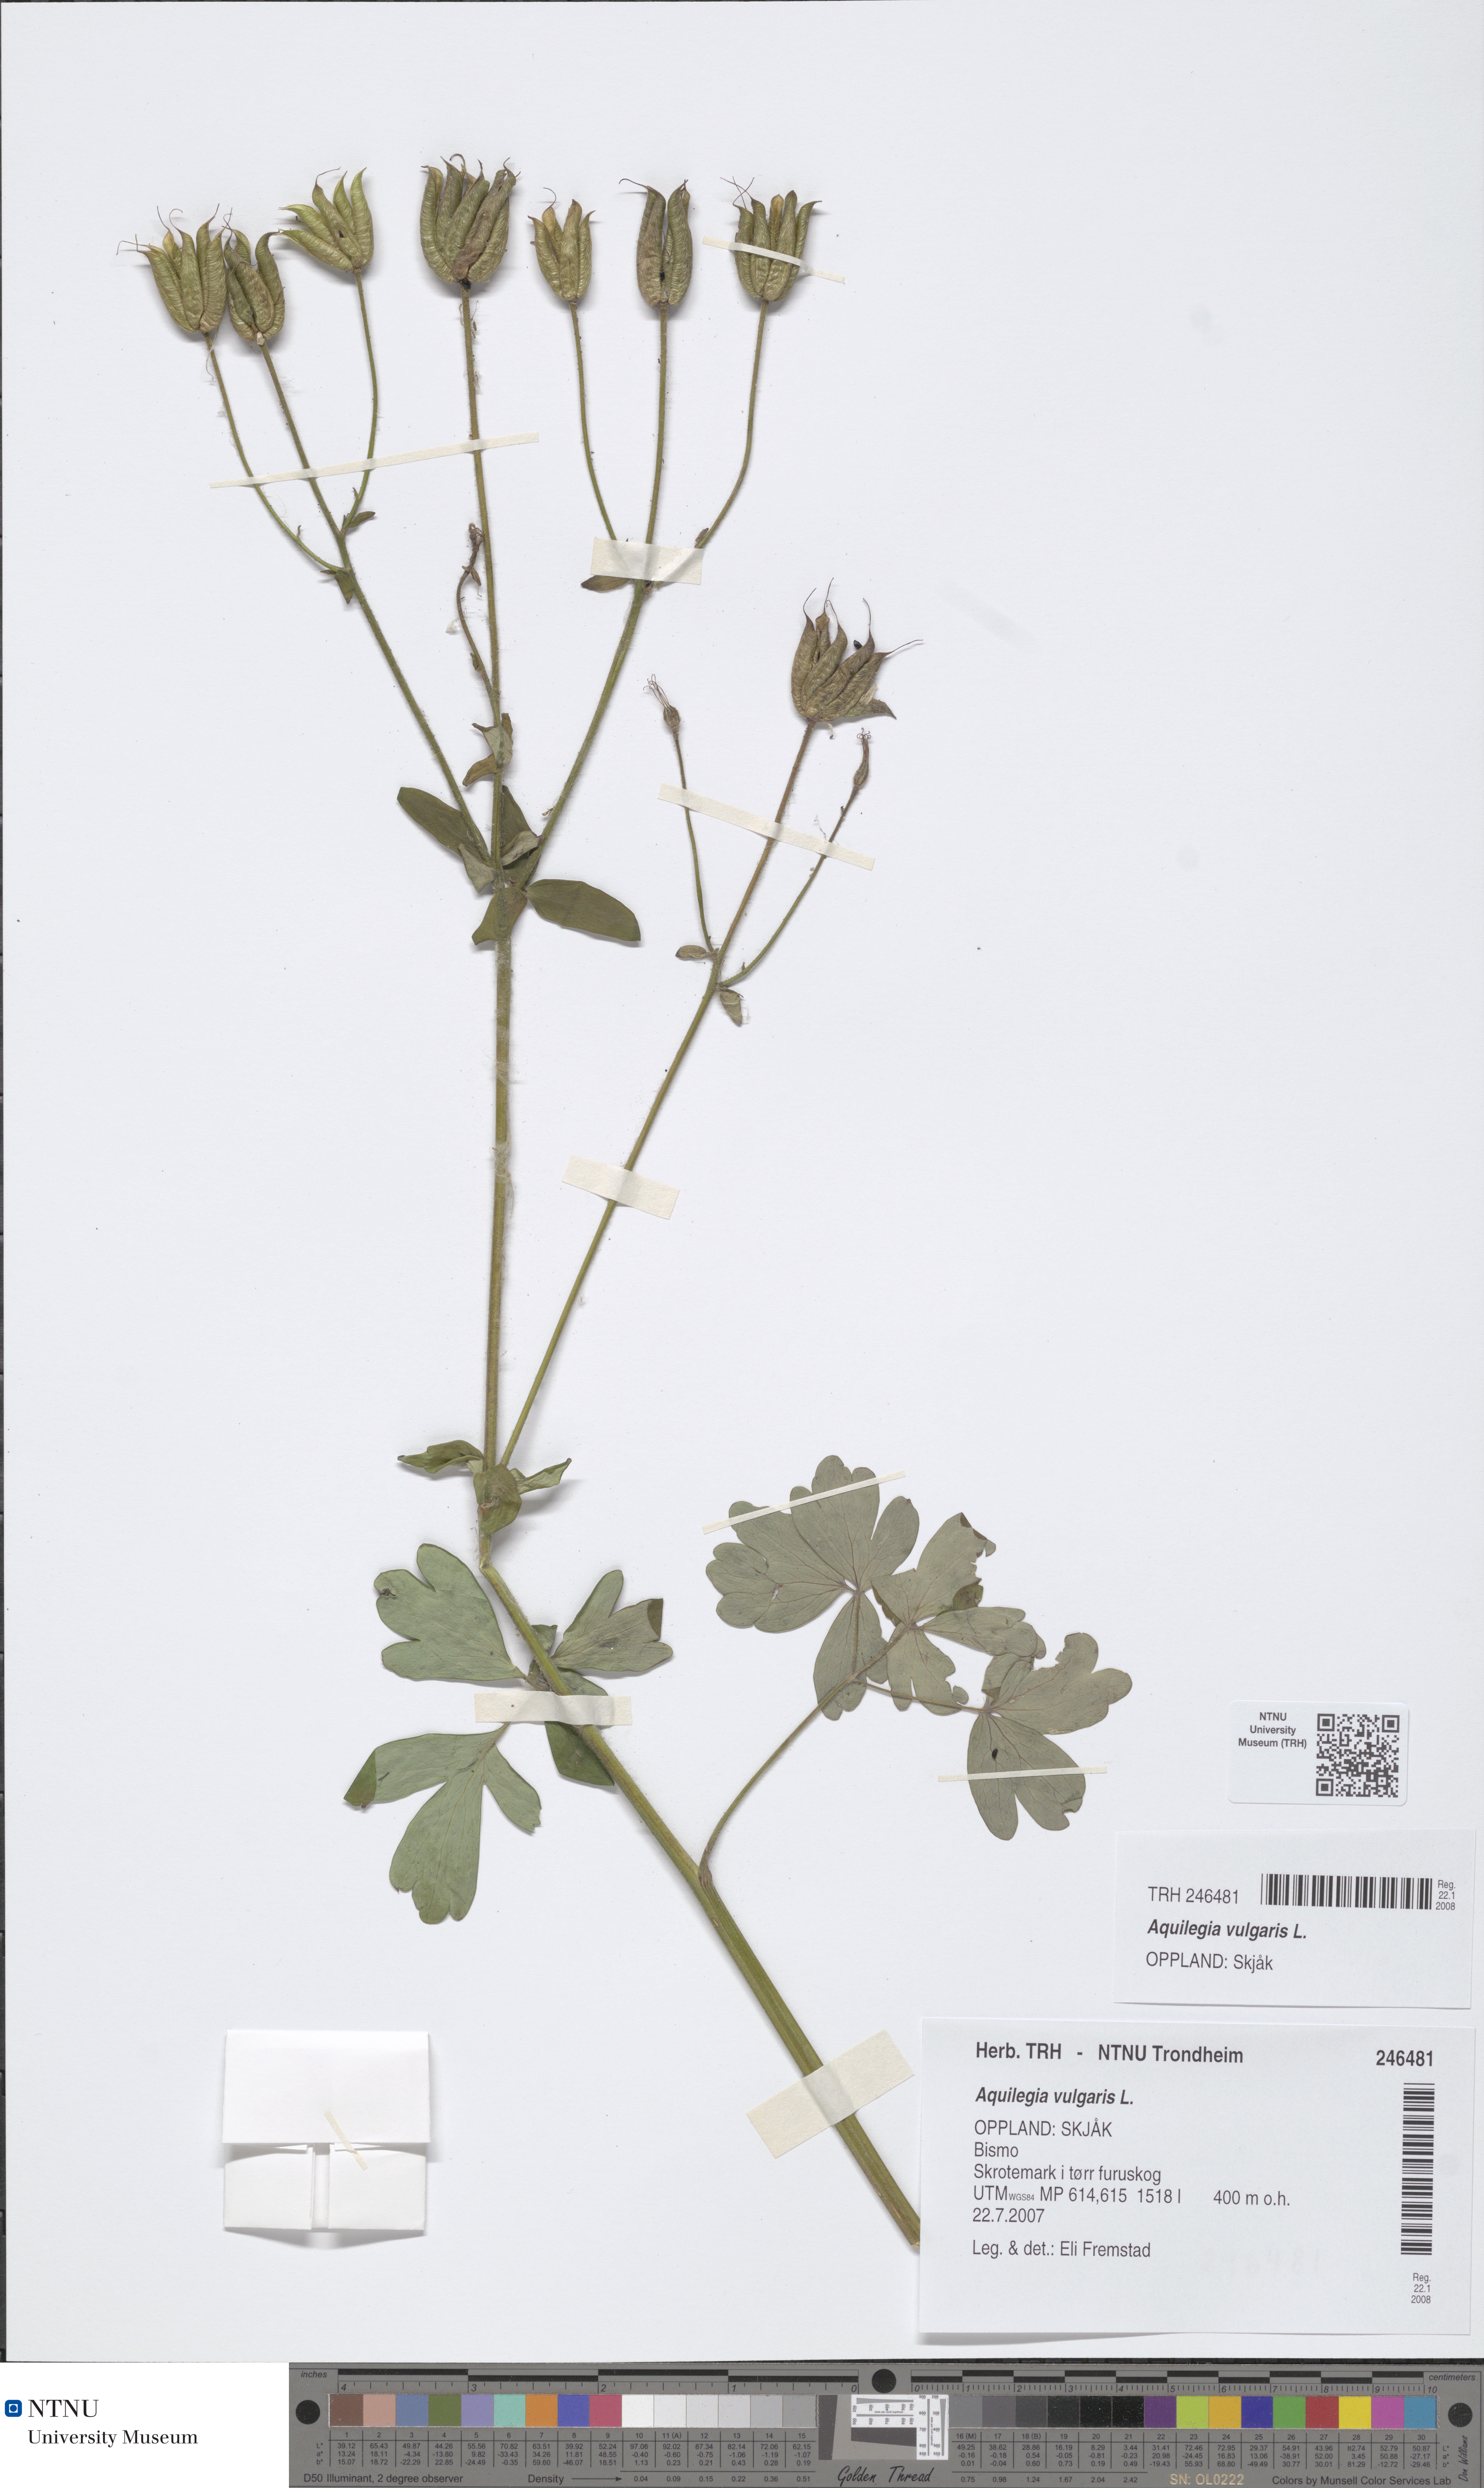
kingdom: Plantae
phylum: Tracheophyta
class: Magnoliopsida
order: Ranunculales
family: Ranunculaceae
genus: Aquilegia
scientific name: Aquilegia vulgaris
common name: Columbine
